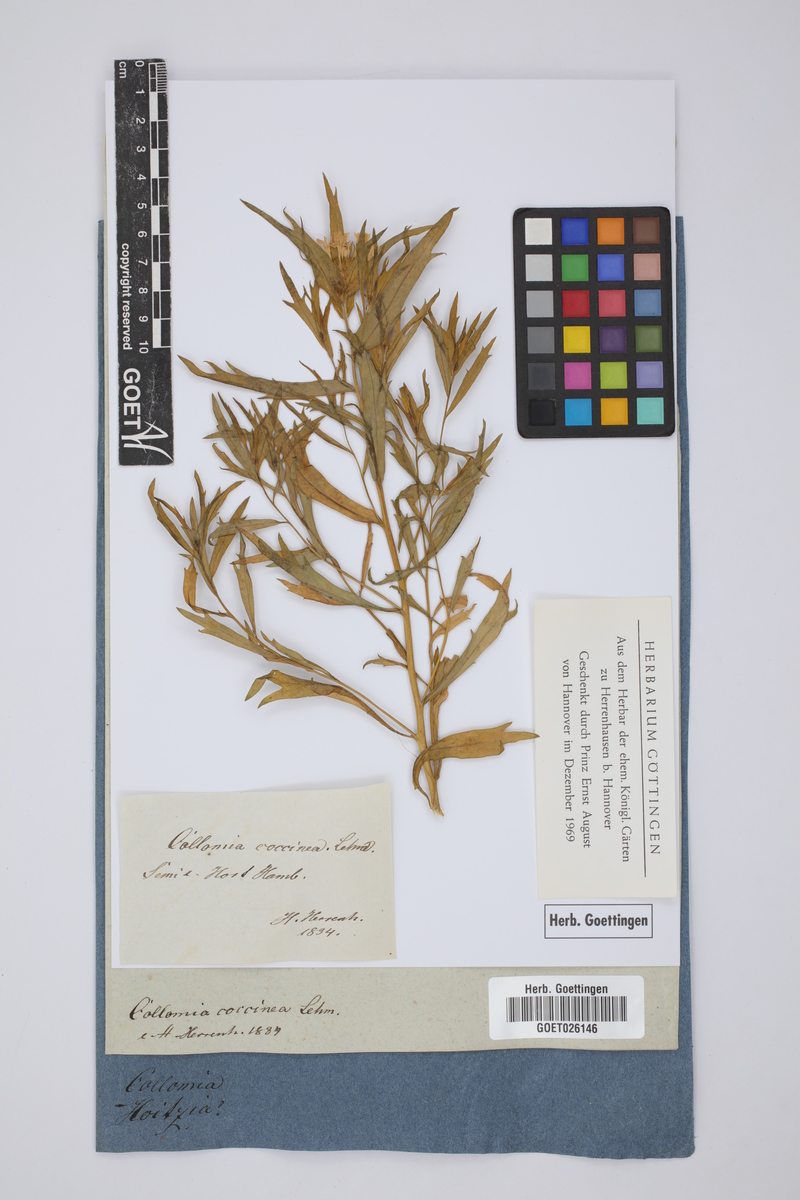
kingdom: Plantae
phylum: Tracheophyta
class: Magnoliopsida
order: Ericales
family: Polemoniaceae
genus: Collomia
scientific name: Collomia biflora
